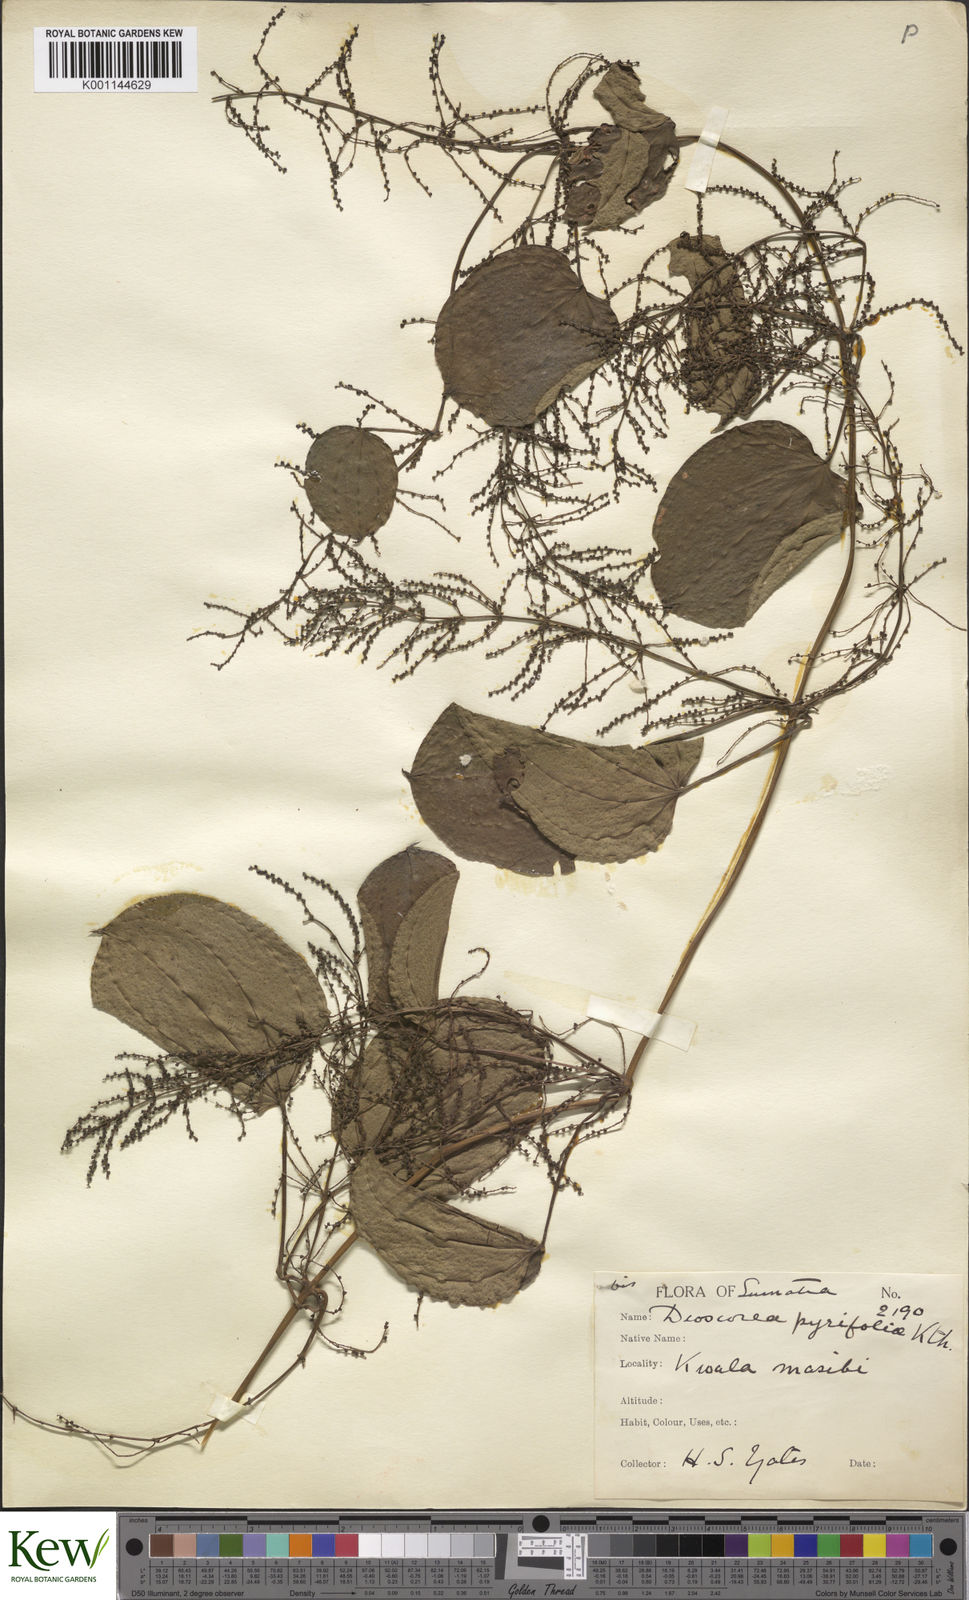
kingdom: Plantae
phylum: Tracheophyta
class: Liliopsida
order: Dioscoreales
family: Dioscoreaceae
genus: Dioscorea
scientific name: Dioscorea pyrifolia
